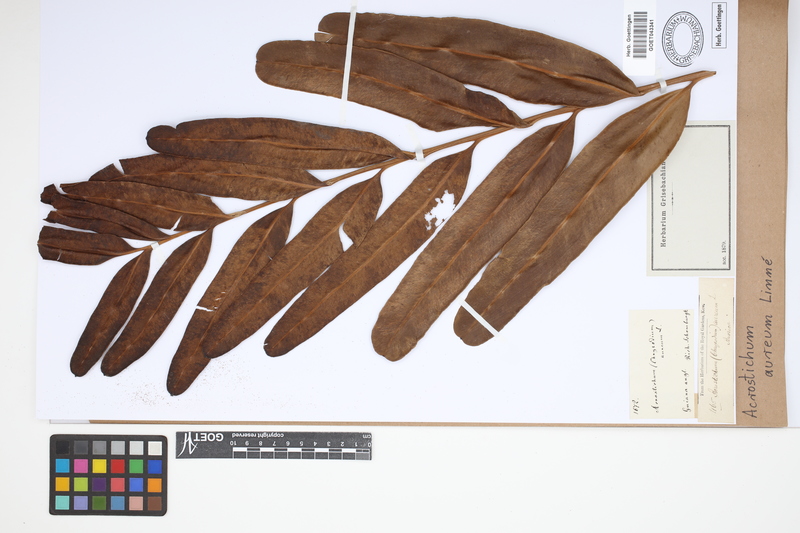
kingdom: Plantae
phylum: Tracheophyta
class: Polypodiopsida
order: Polypodiales
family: Pteridaceae
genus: Acrostichum
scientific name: Acrostichum aureum
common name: Leather fern
